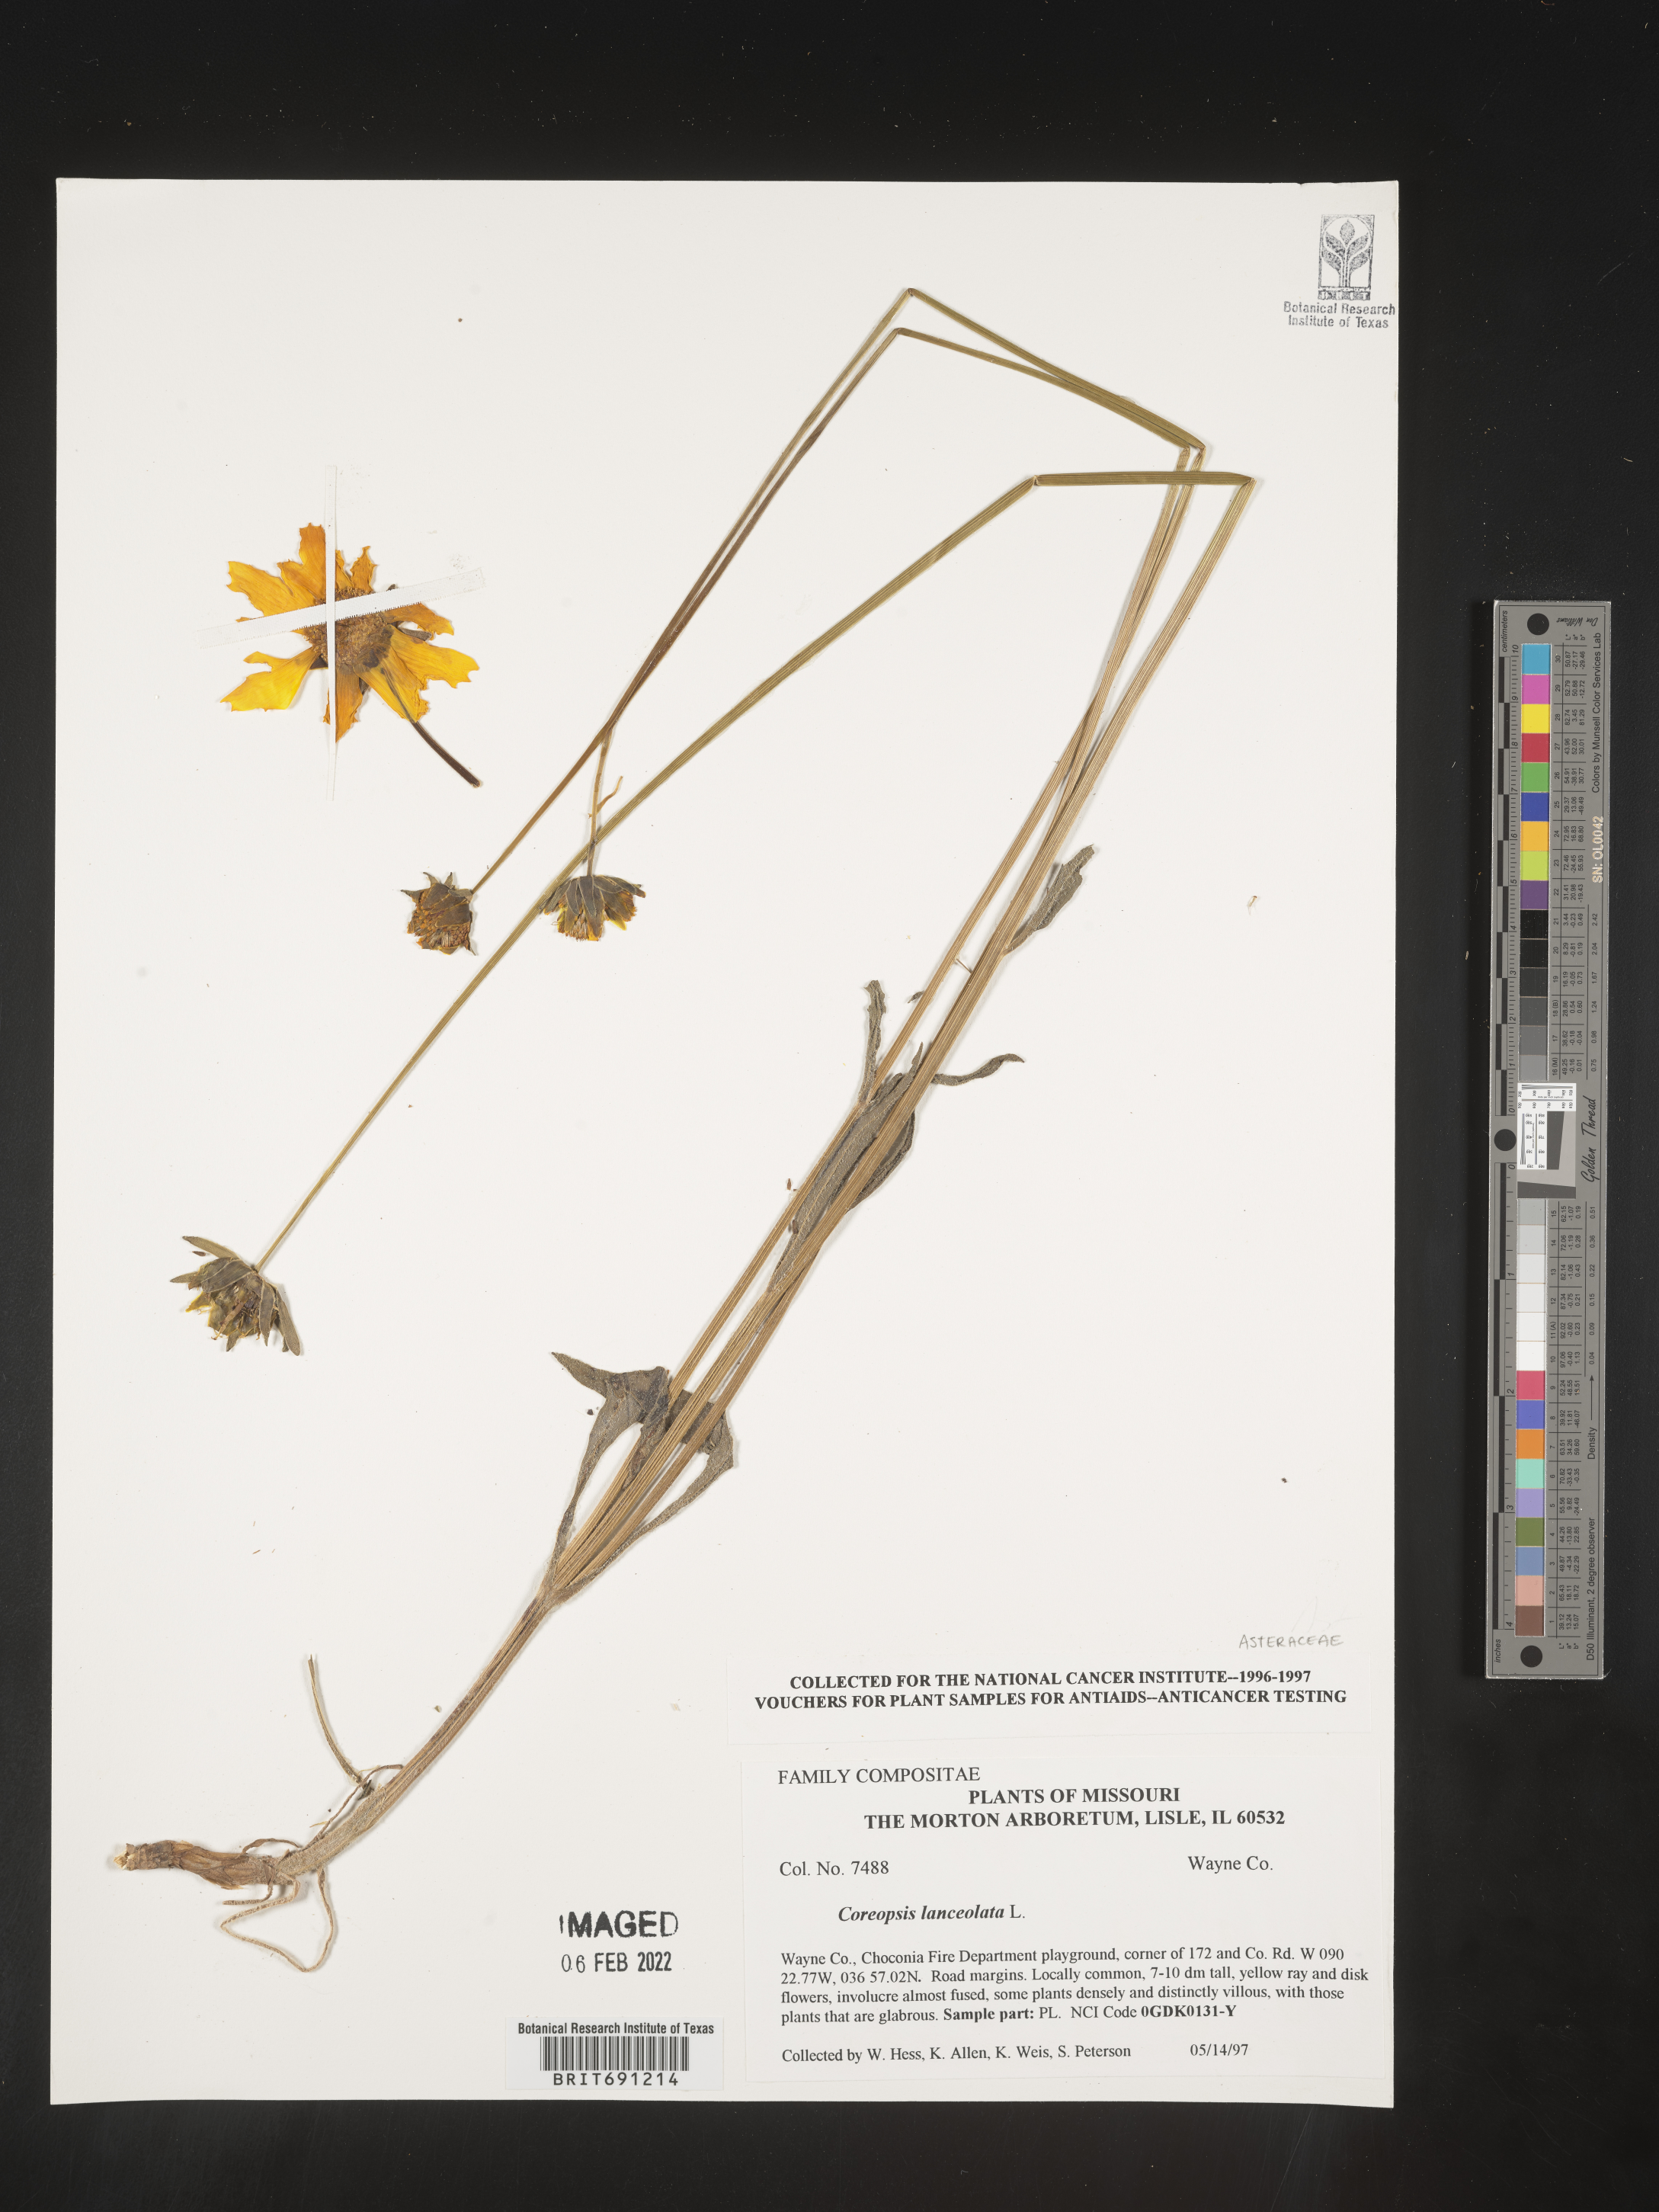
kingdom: Plantae
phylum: Tracheophyta
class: Magnoliopsida
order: Asterales
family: Asteraceae
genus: Coreopsis
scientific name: Coreopsis lanceolata
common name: Garden coreopsis
